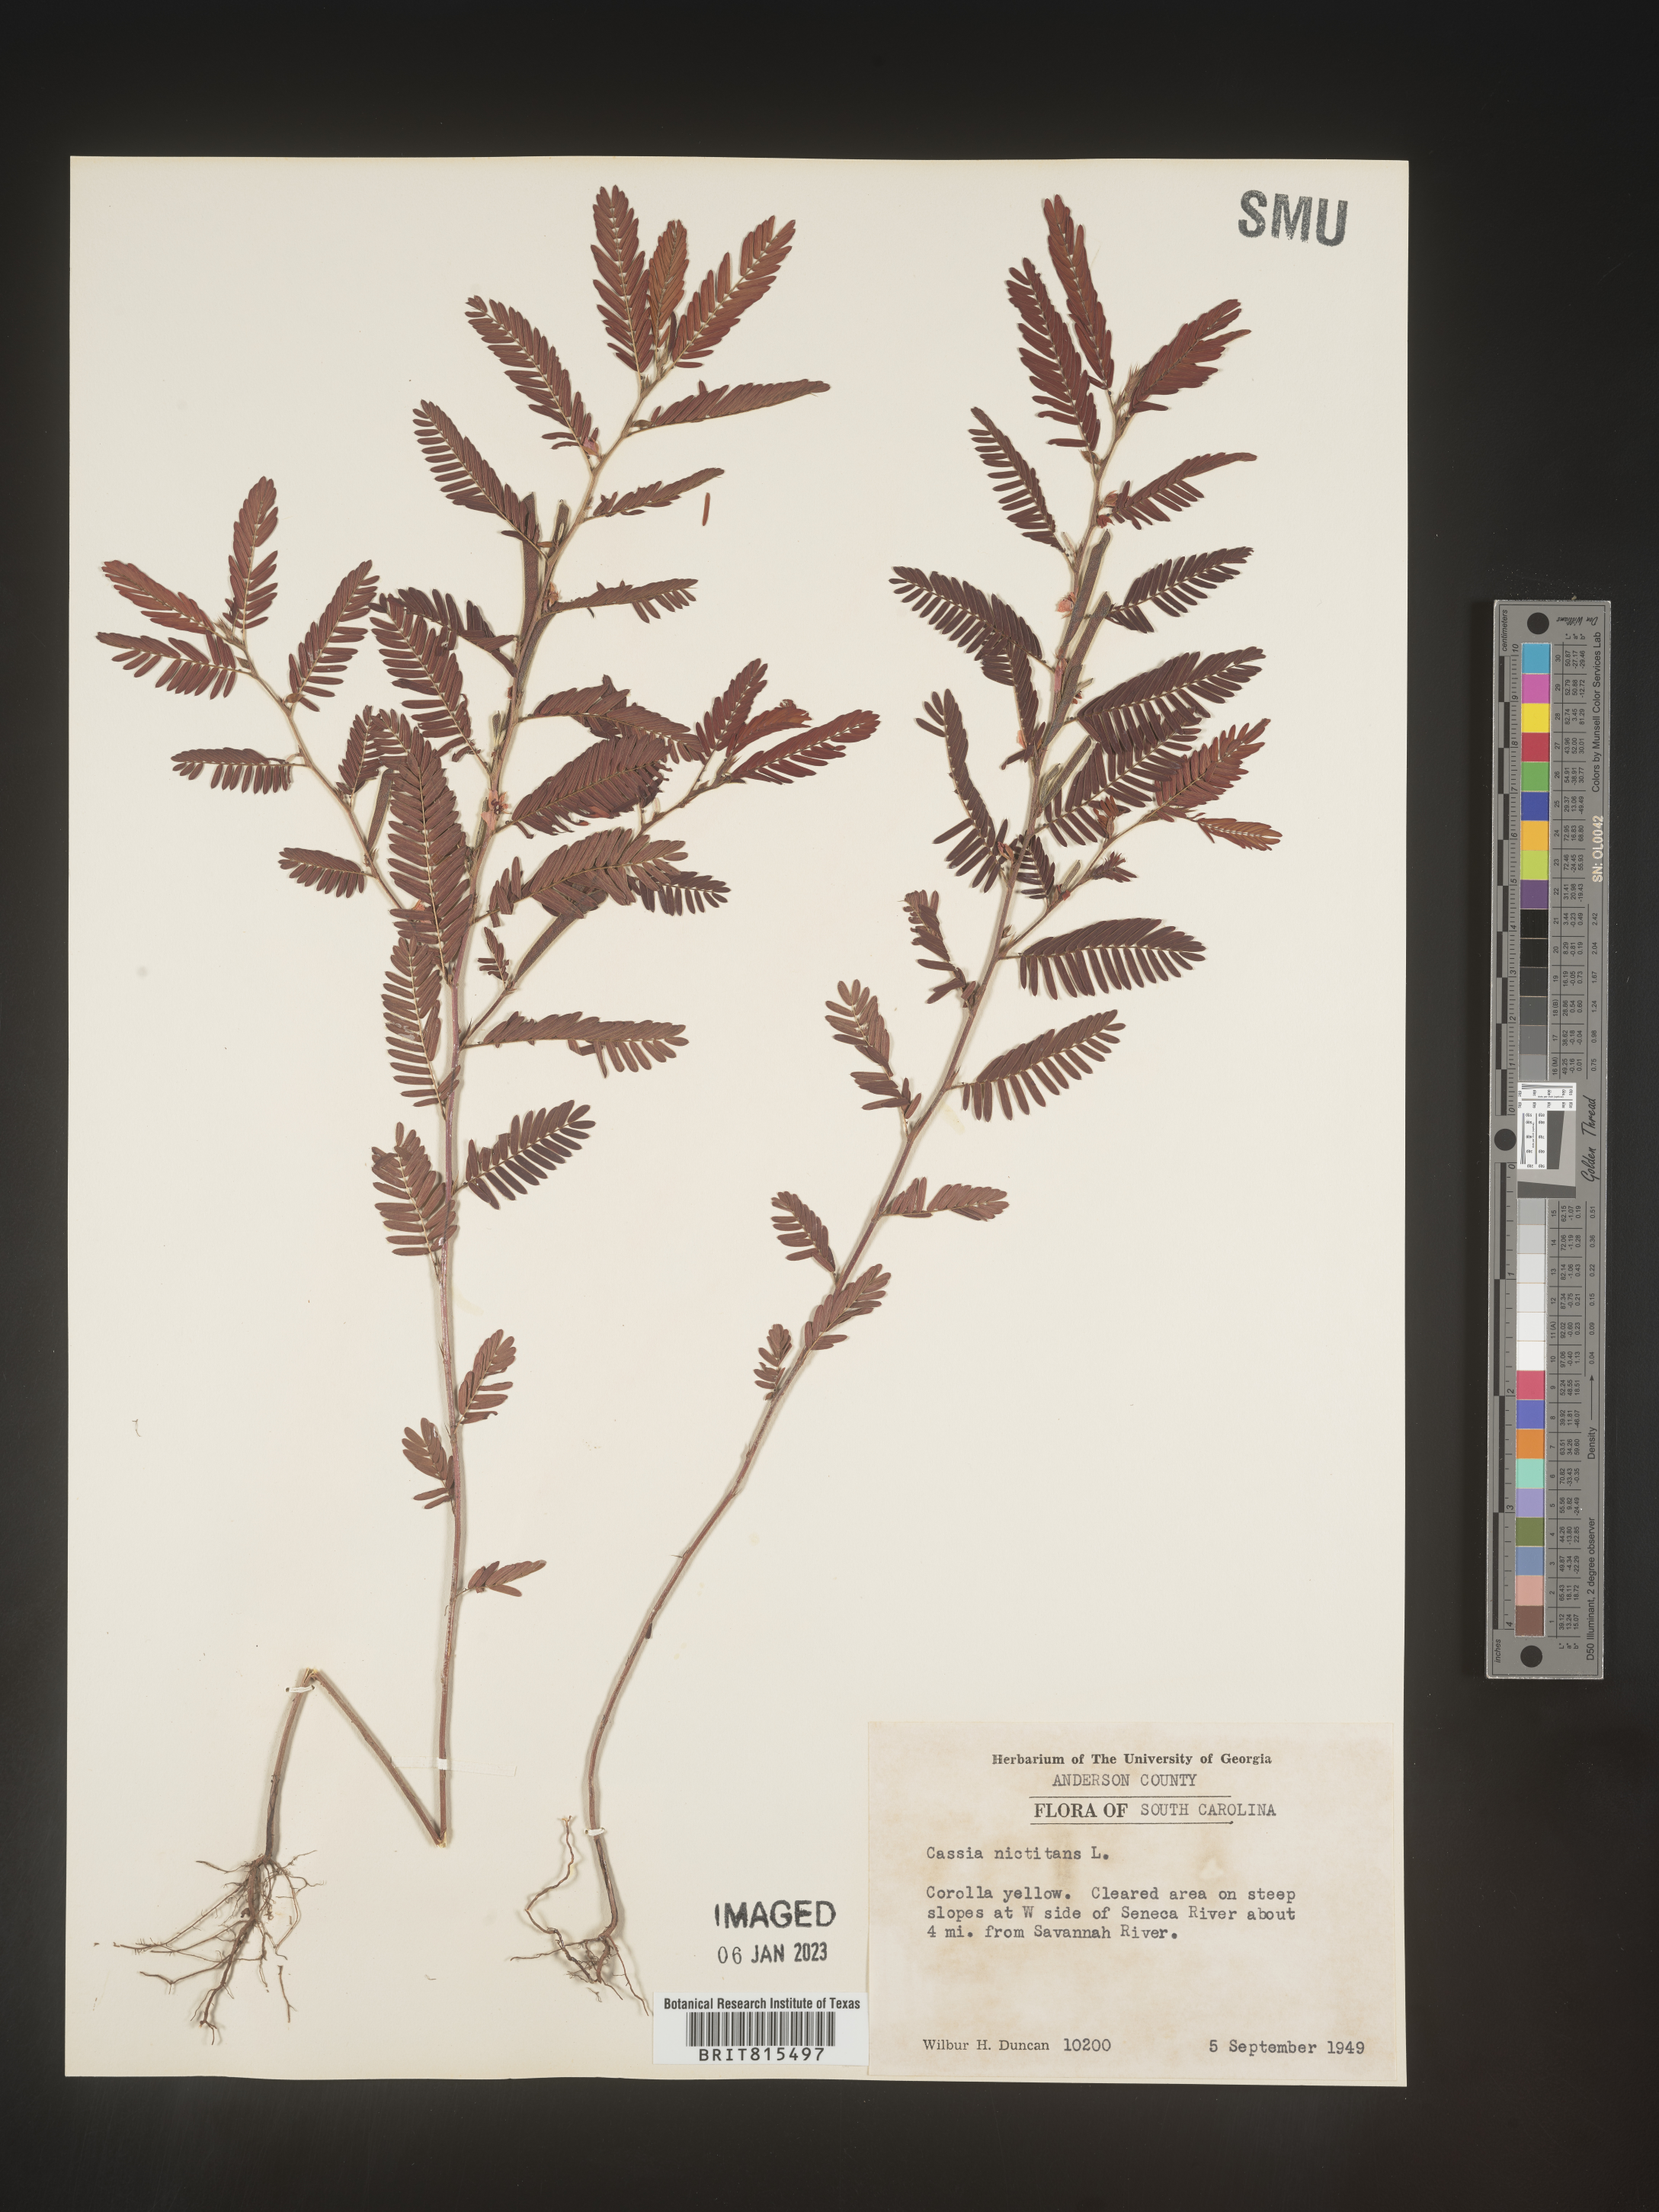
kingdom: Plantae
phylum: Tracheophyta
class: Magnoliopsida
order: Fabales
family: Fabaceae
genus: Chamaecrista
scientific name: Chamaecrista nictitans
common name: Sensitive cassia
